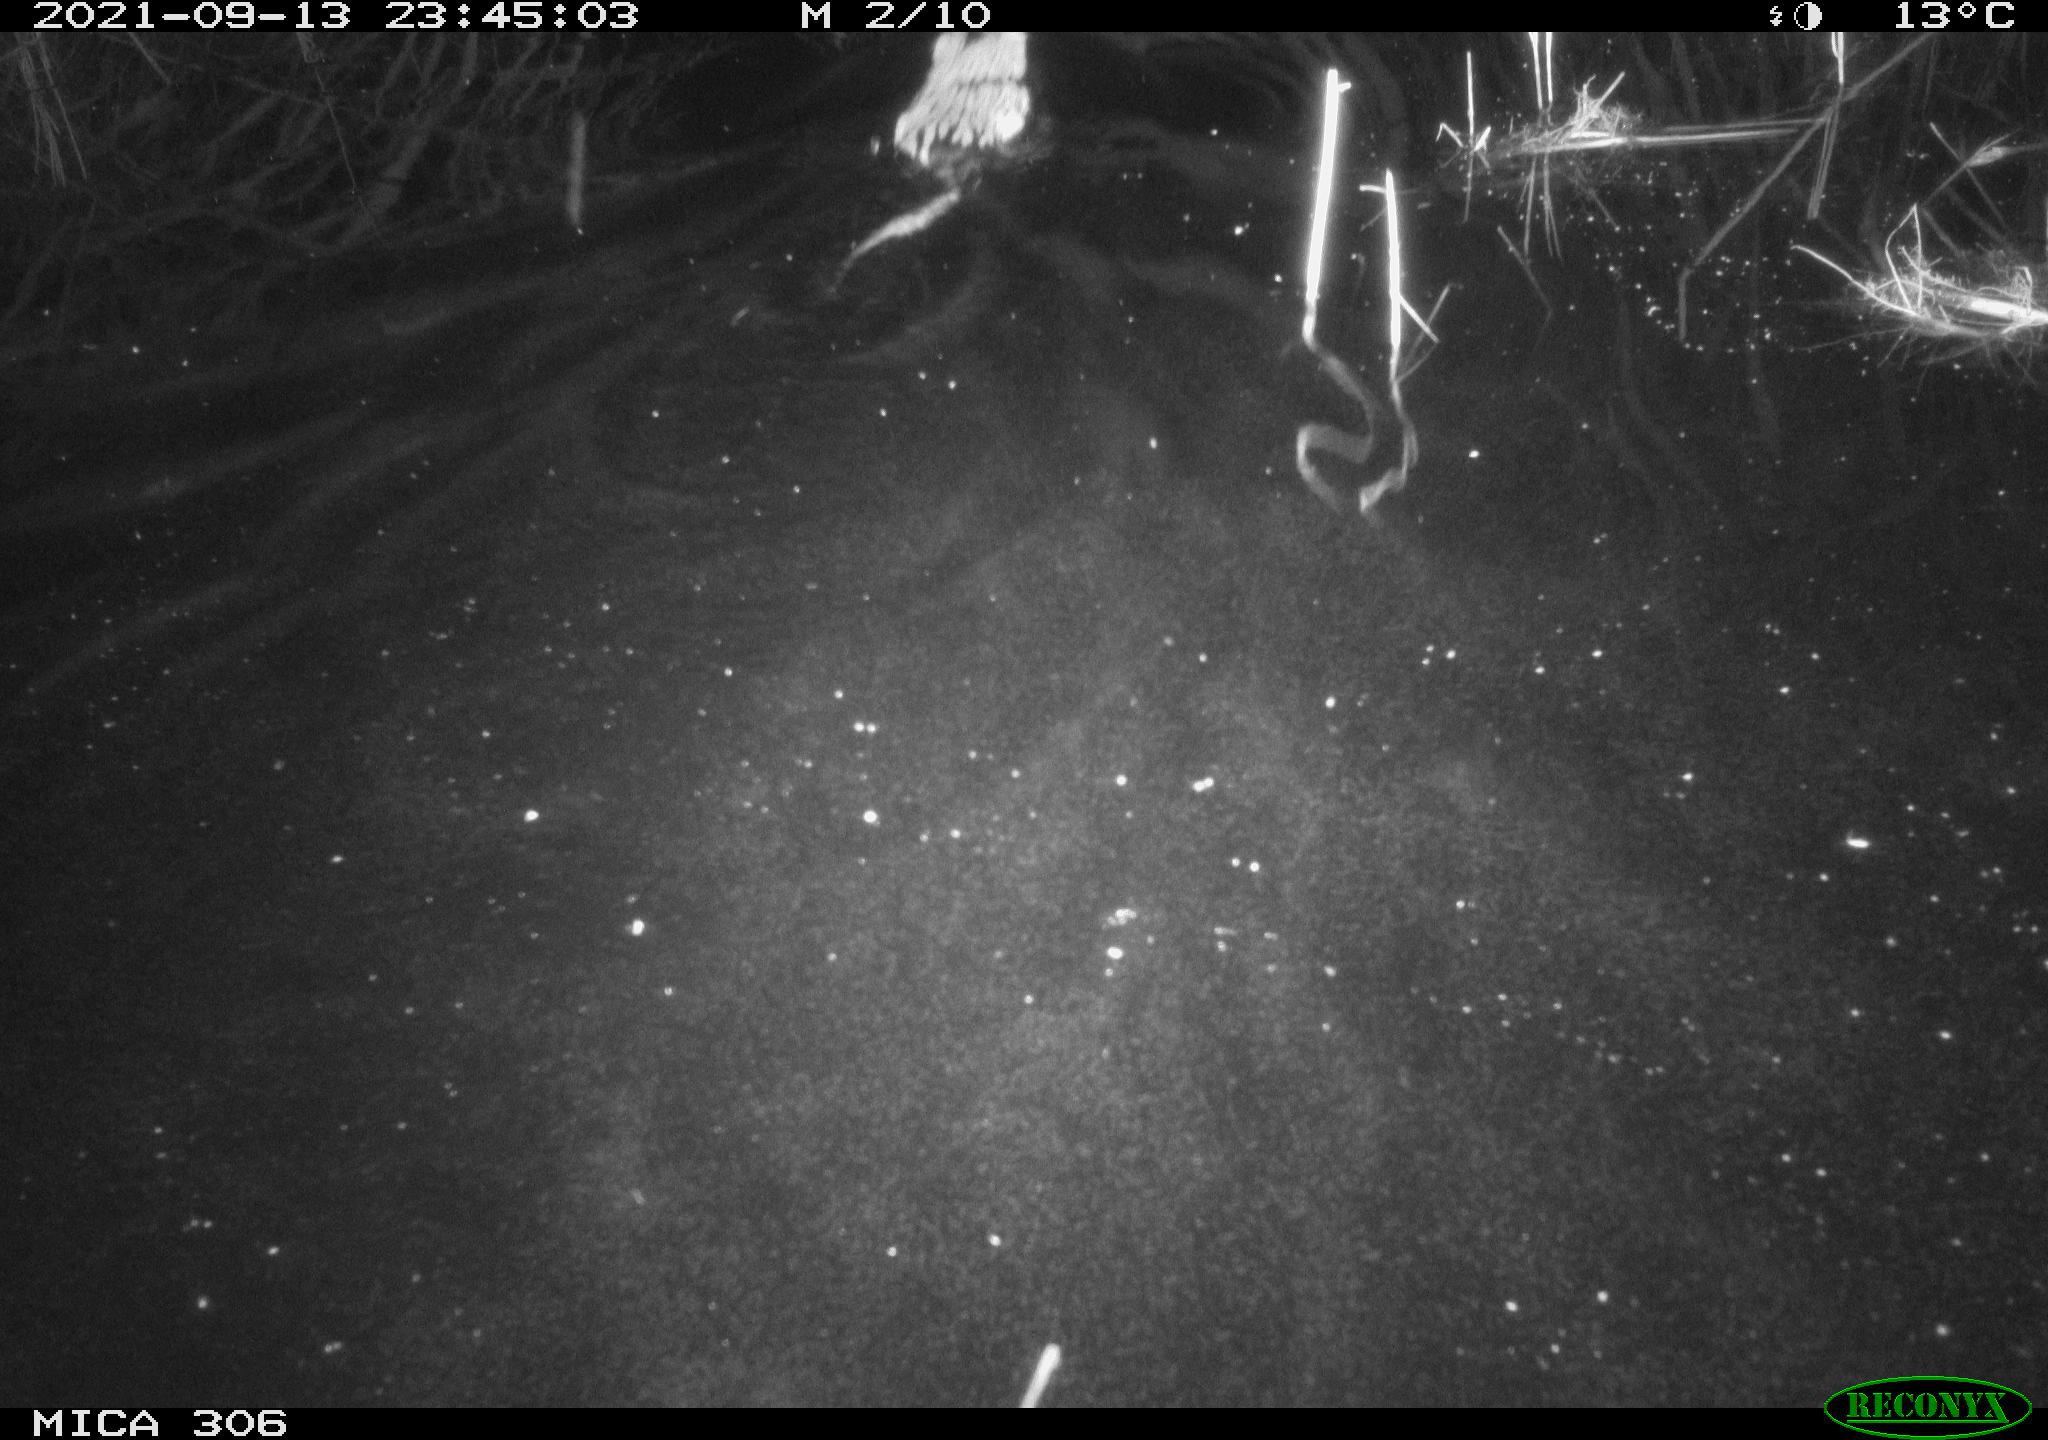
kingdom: Animalia
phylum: Chordata
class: Mammalia
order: Rodentia
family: Cricetidae
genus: Ondatra
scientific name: Ondatra zibethicus
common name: Muskrat
